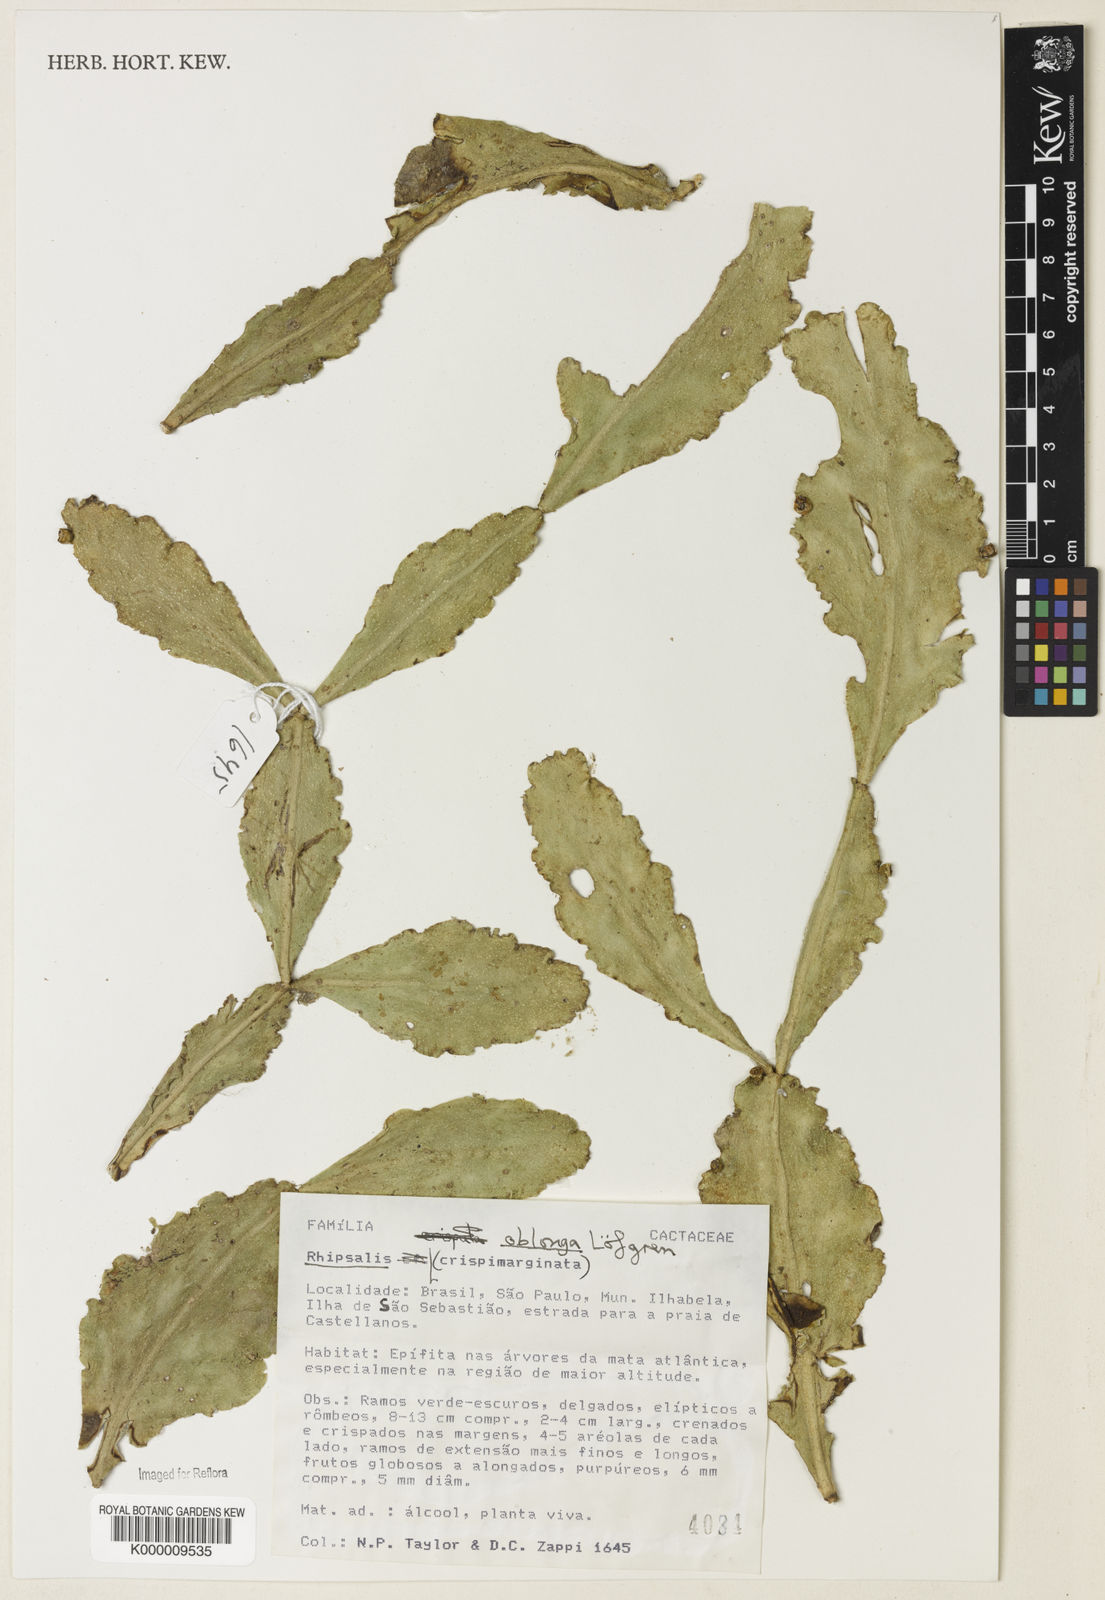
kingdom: Plantae
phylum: Tracheophyta
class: Magnoliopsida
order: Caryophyllales
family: Cactaceae
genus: Rhipsalis
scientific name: Rhipsalis
